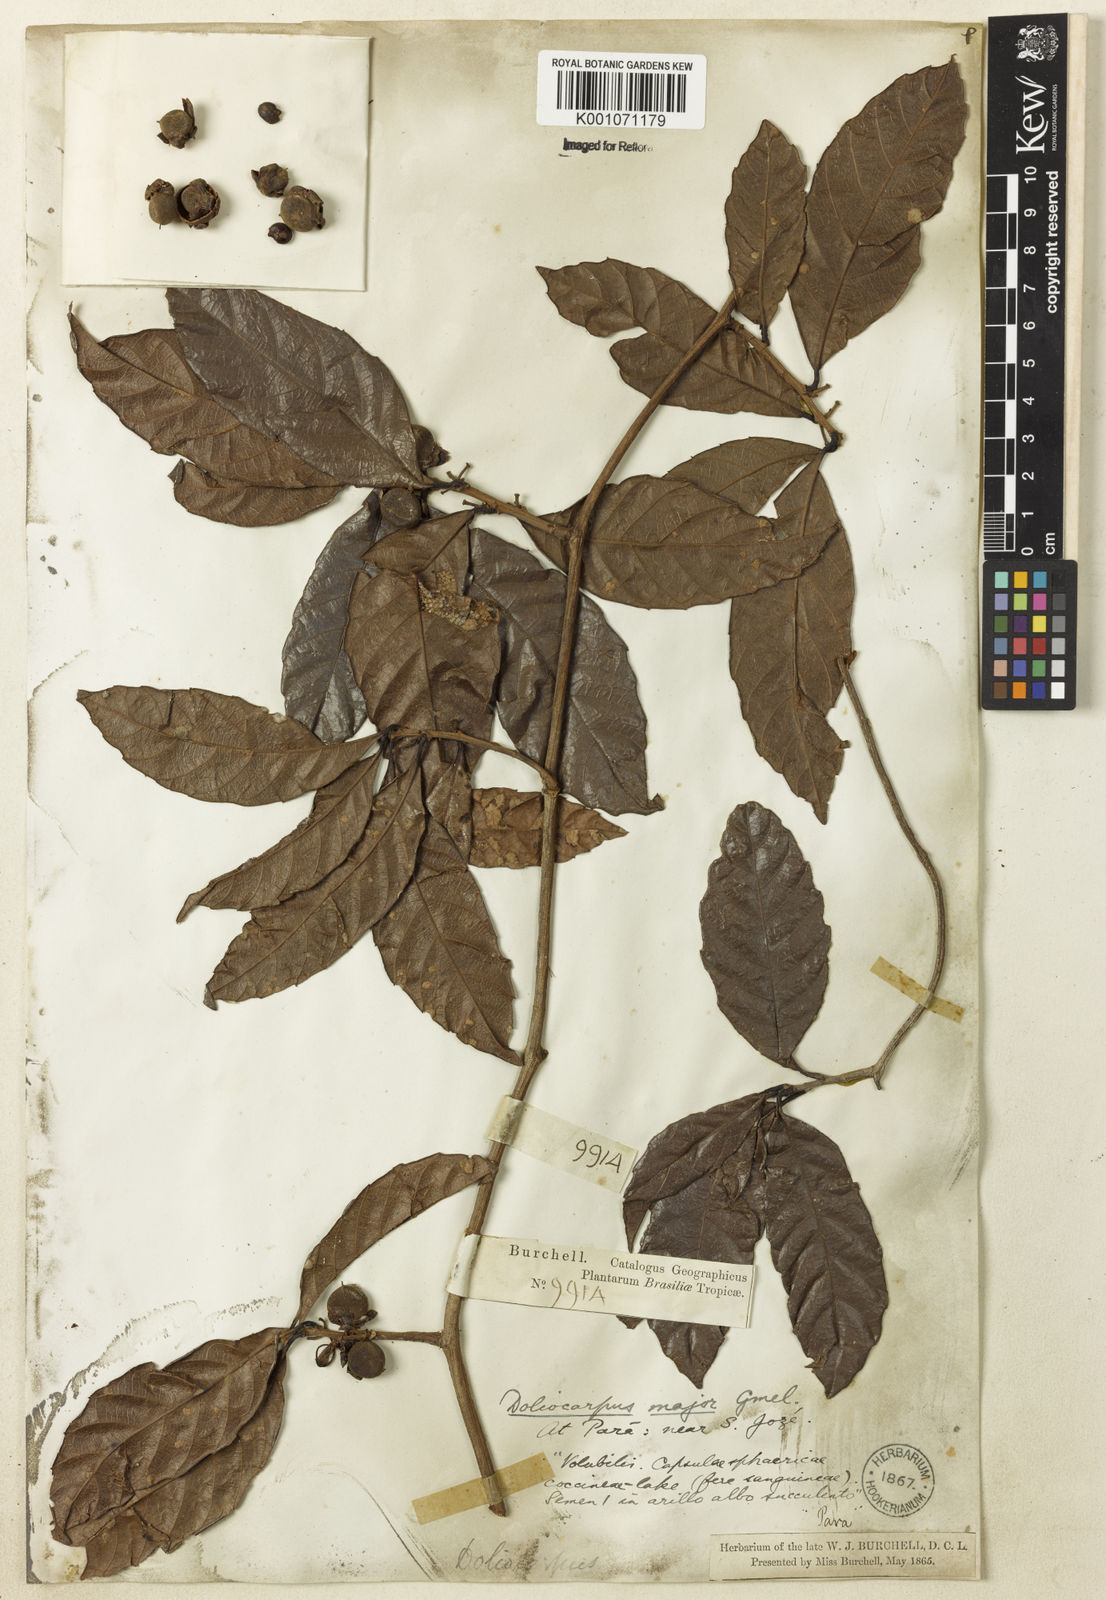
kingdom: Plantae
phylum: Tracheophyta
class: Magnoliopsida
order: Dilleniales
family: Dilleniaceae
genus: Doliocarpus
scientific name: Doliocarpus major
